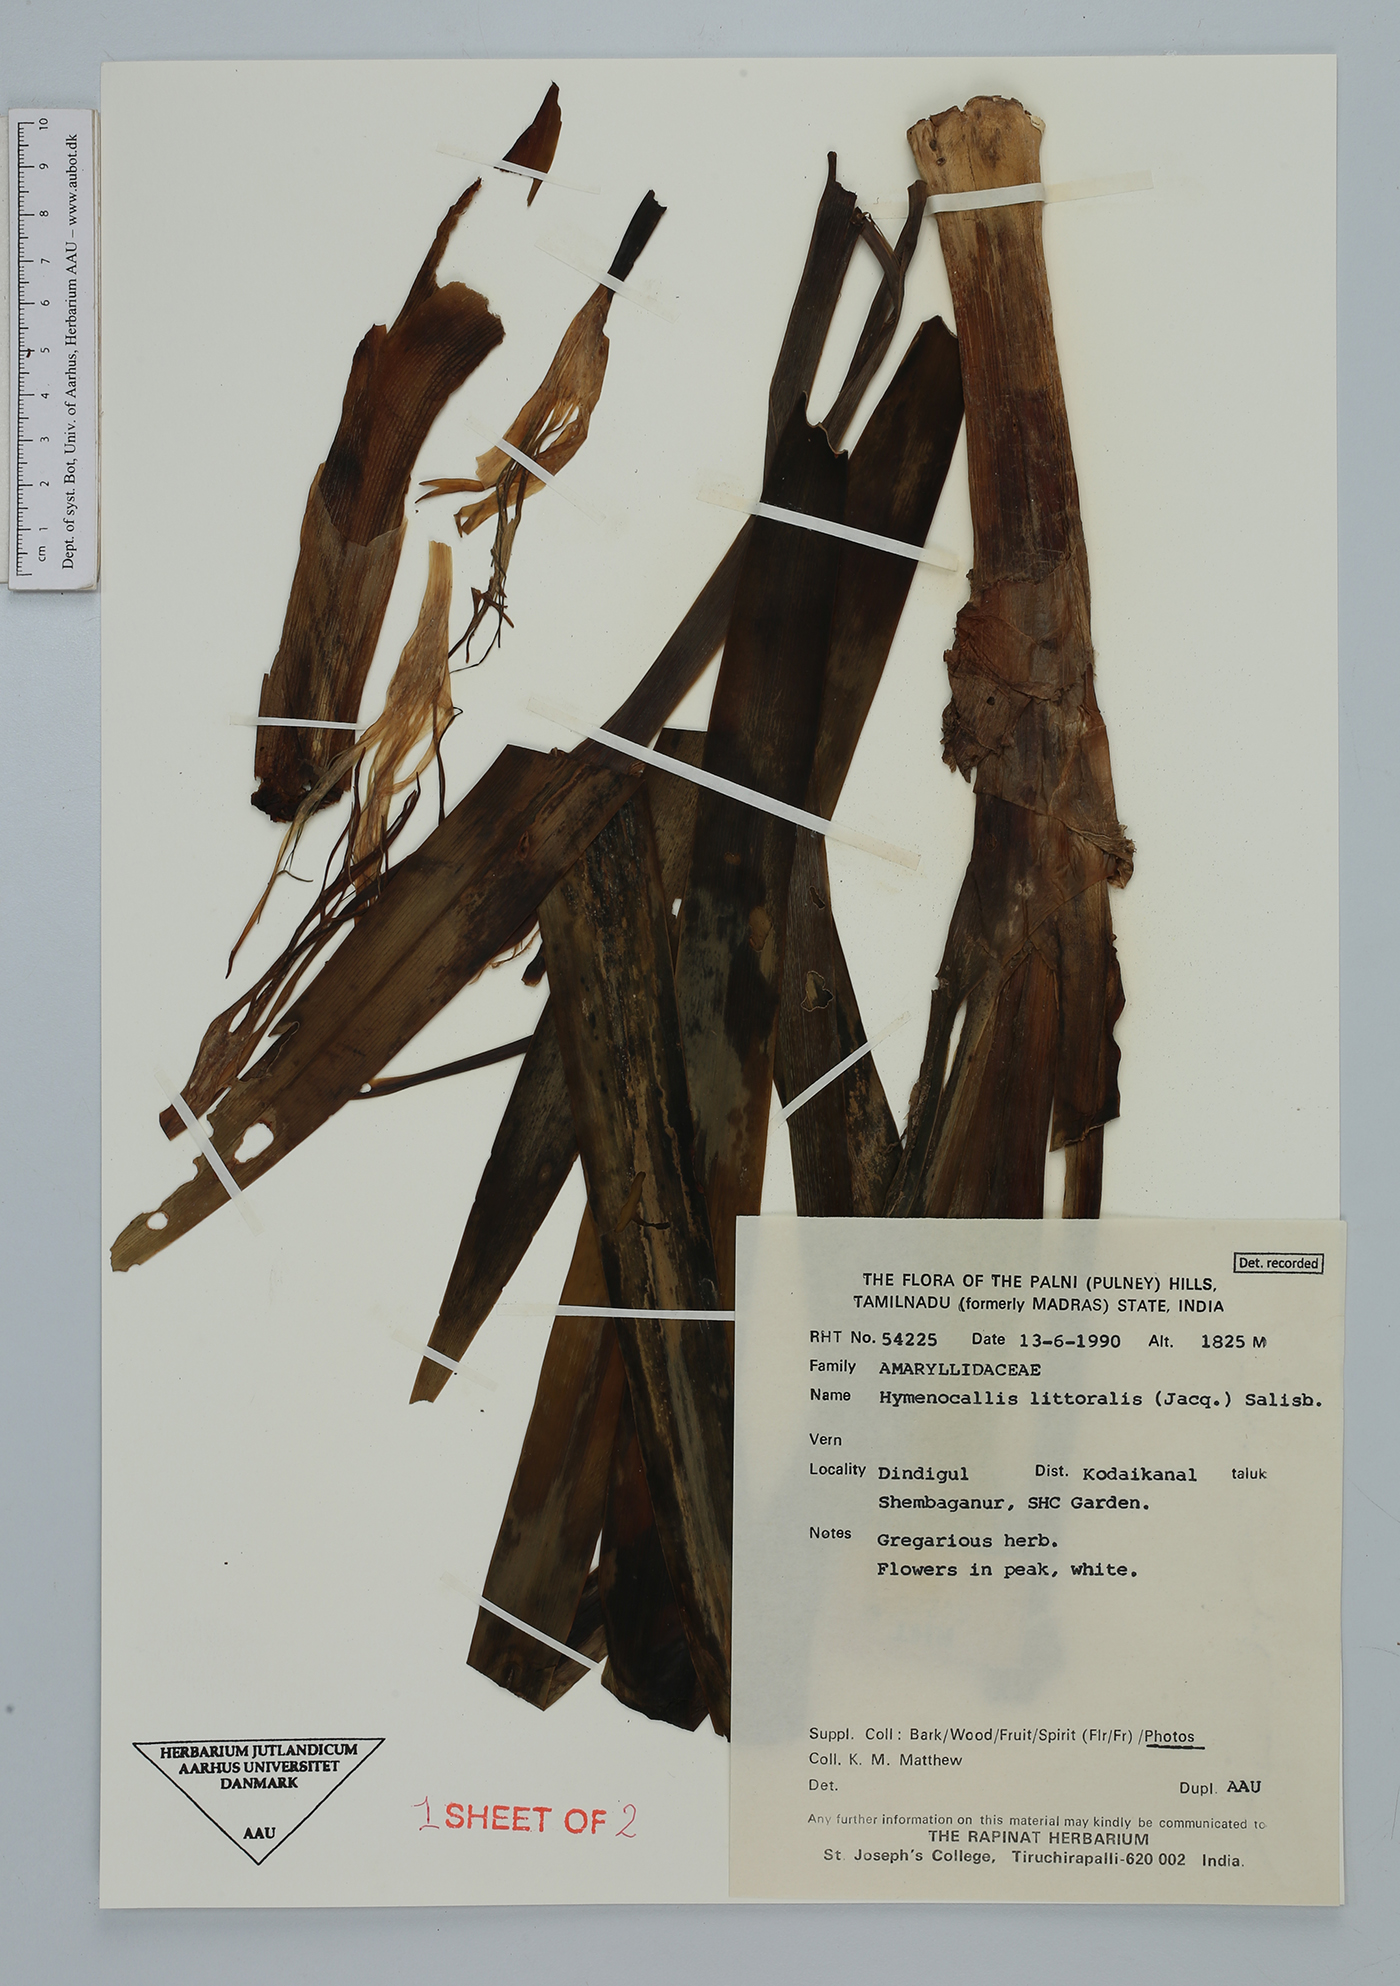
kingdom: Plantae
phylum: Tracheophyta
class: Liliopsida
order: Asparagales
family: Amaryllidaceae
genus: Hymenocallis
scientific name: Hymenocallis littoralis
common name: Beach spiderlily
